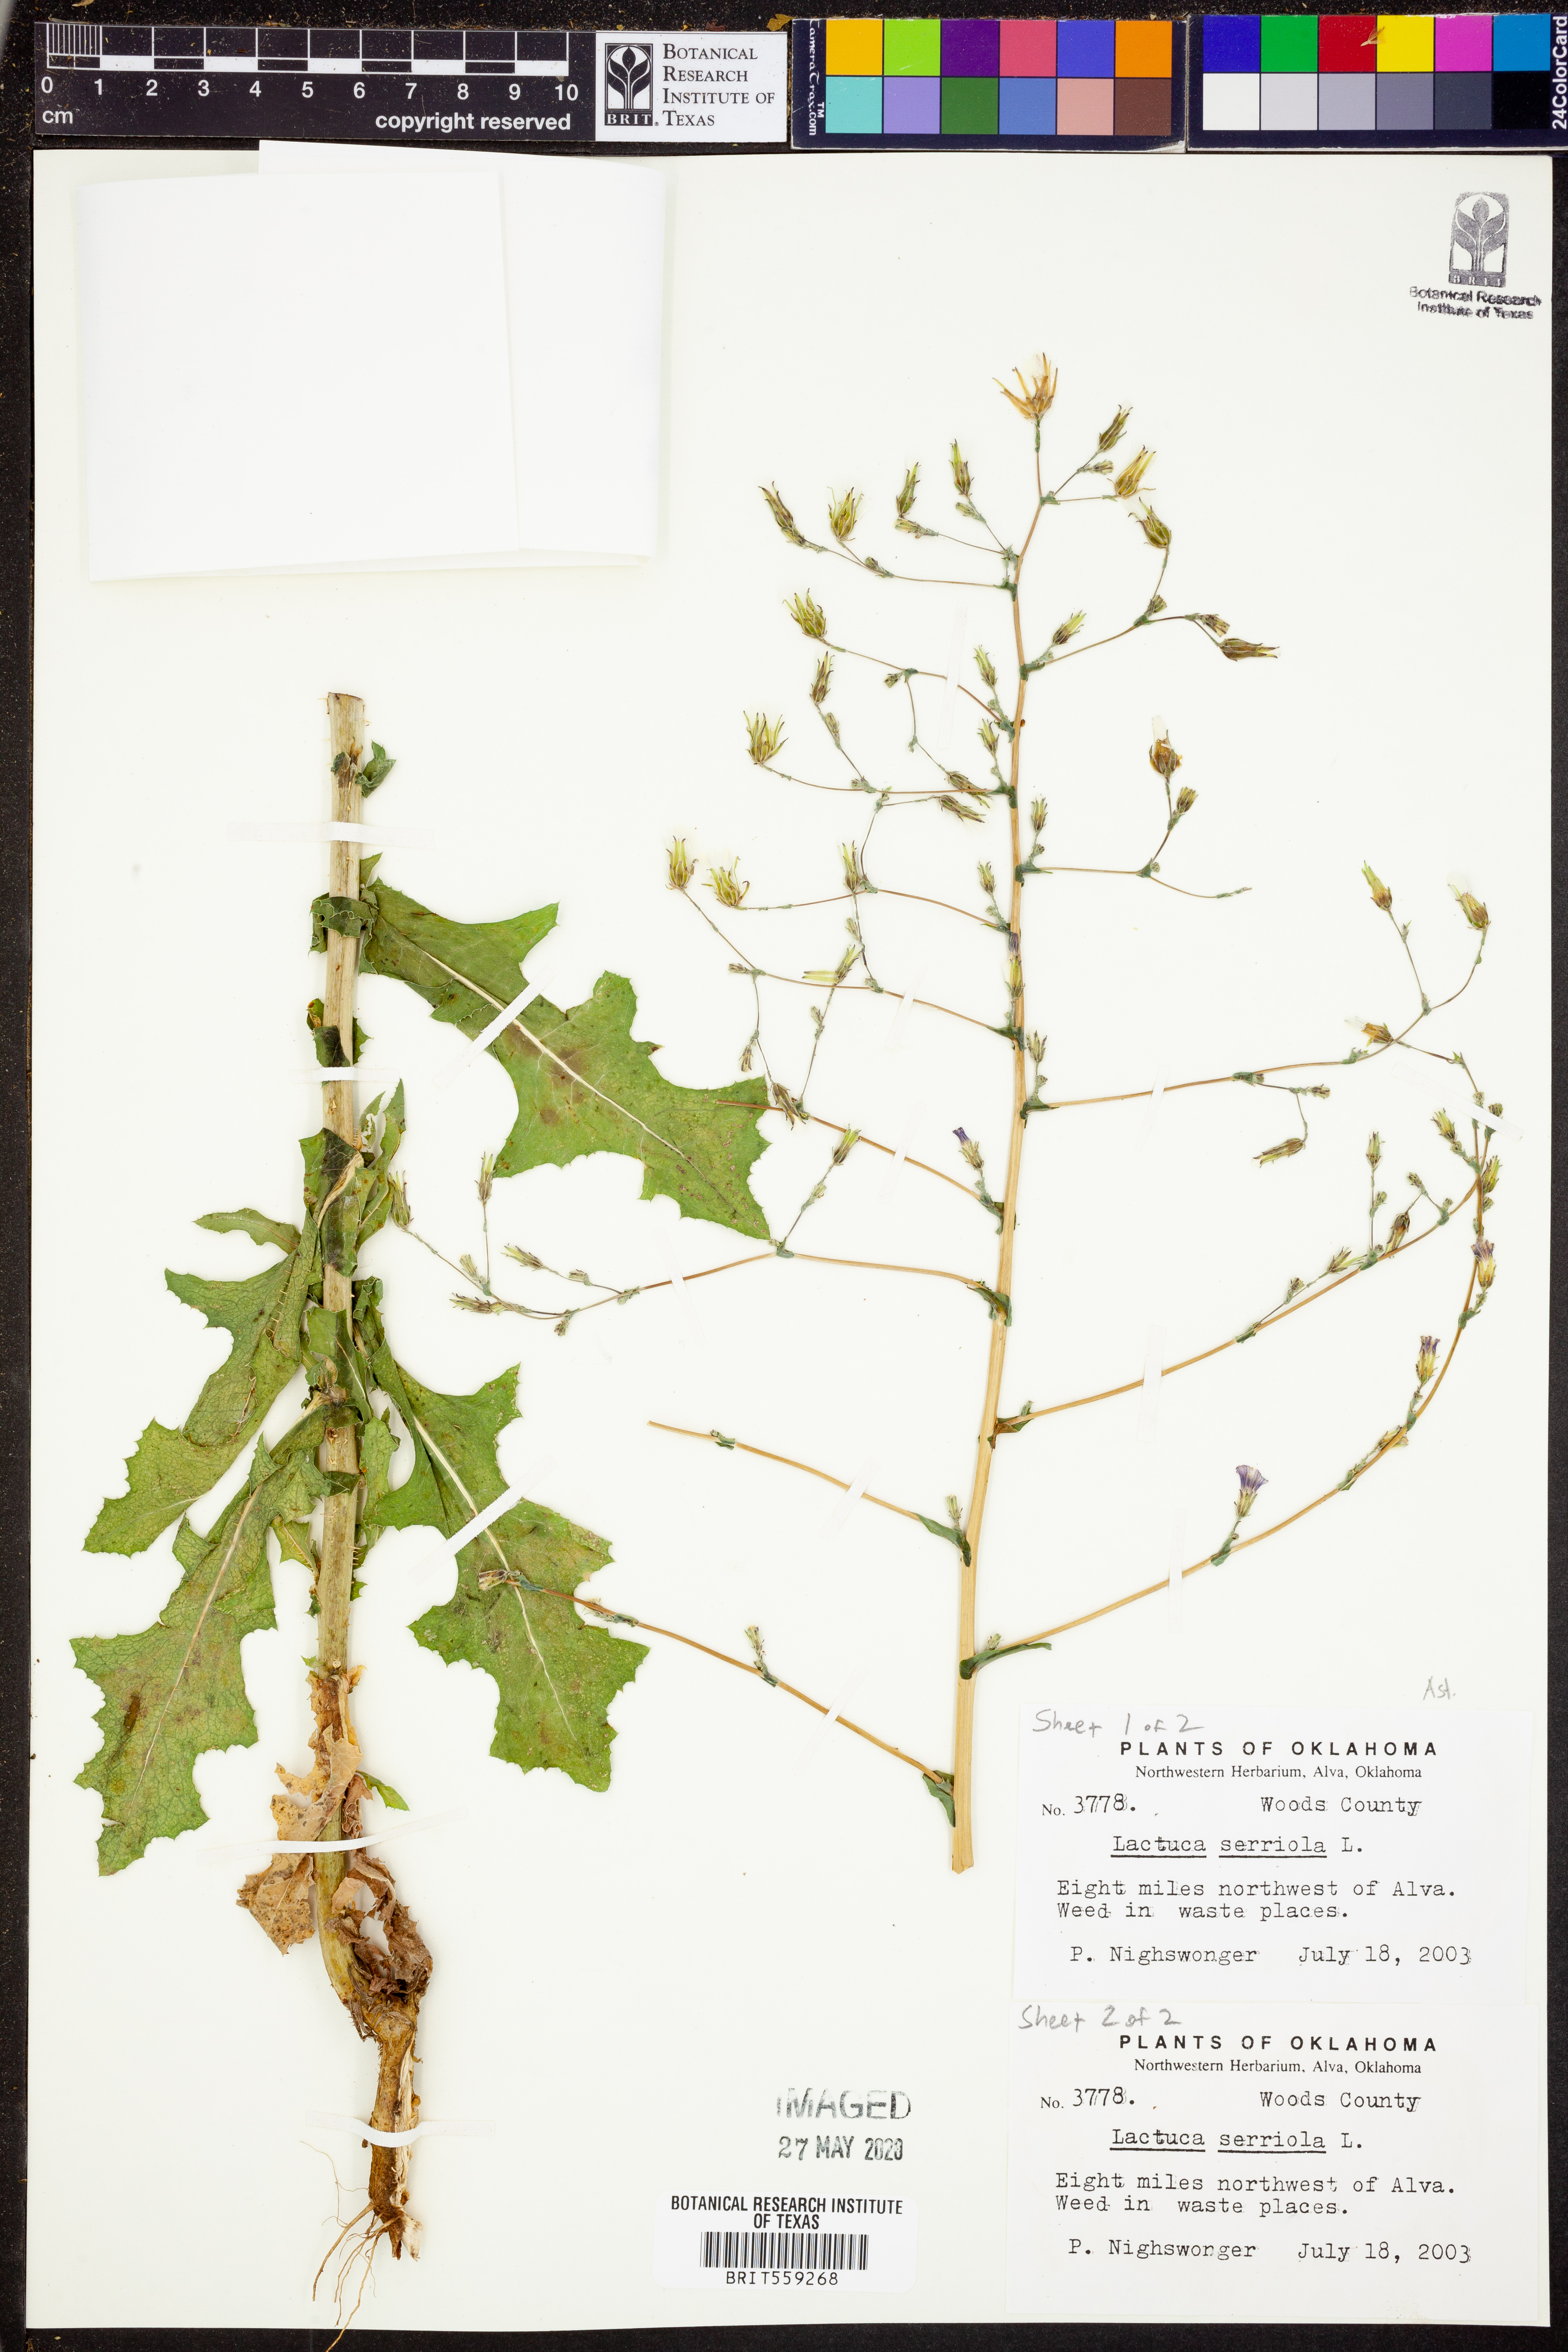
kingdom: Plantae
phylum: Tracheophyta
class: Magnoliopsida
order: Asterales
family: Asteraceae
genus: Lactuca
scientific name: Lactuca serriola
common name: Prickly lettuce
